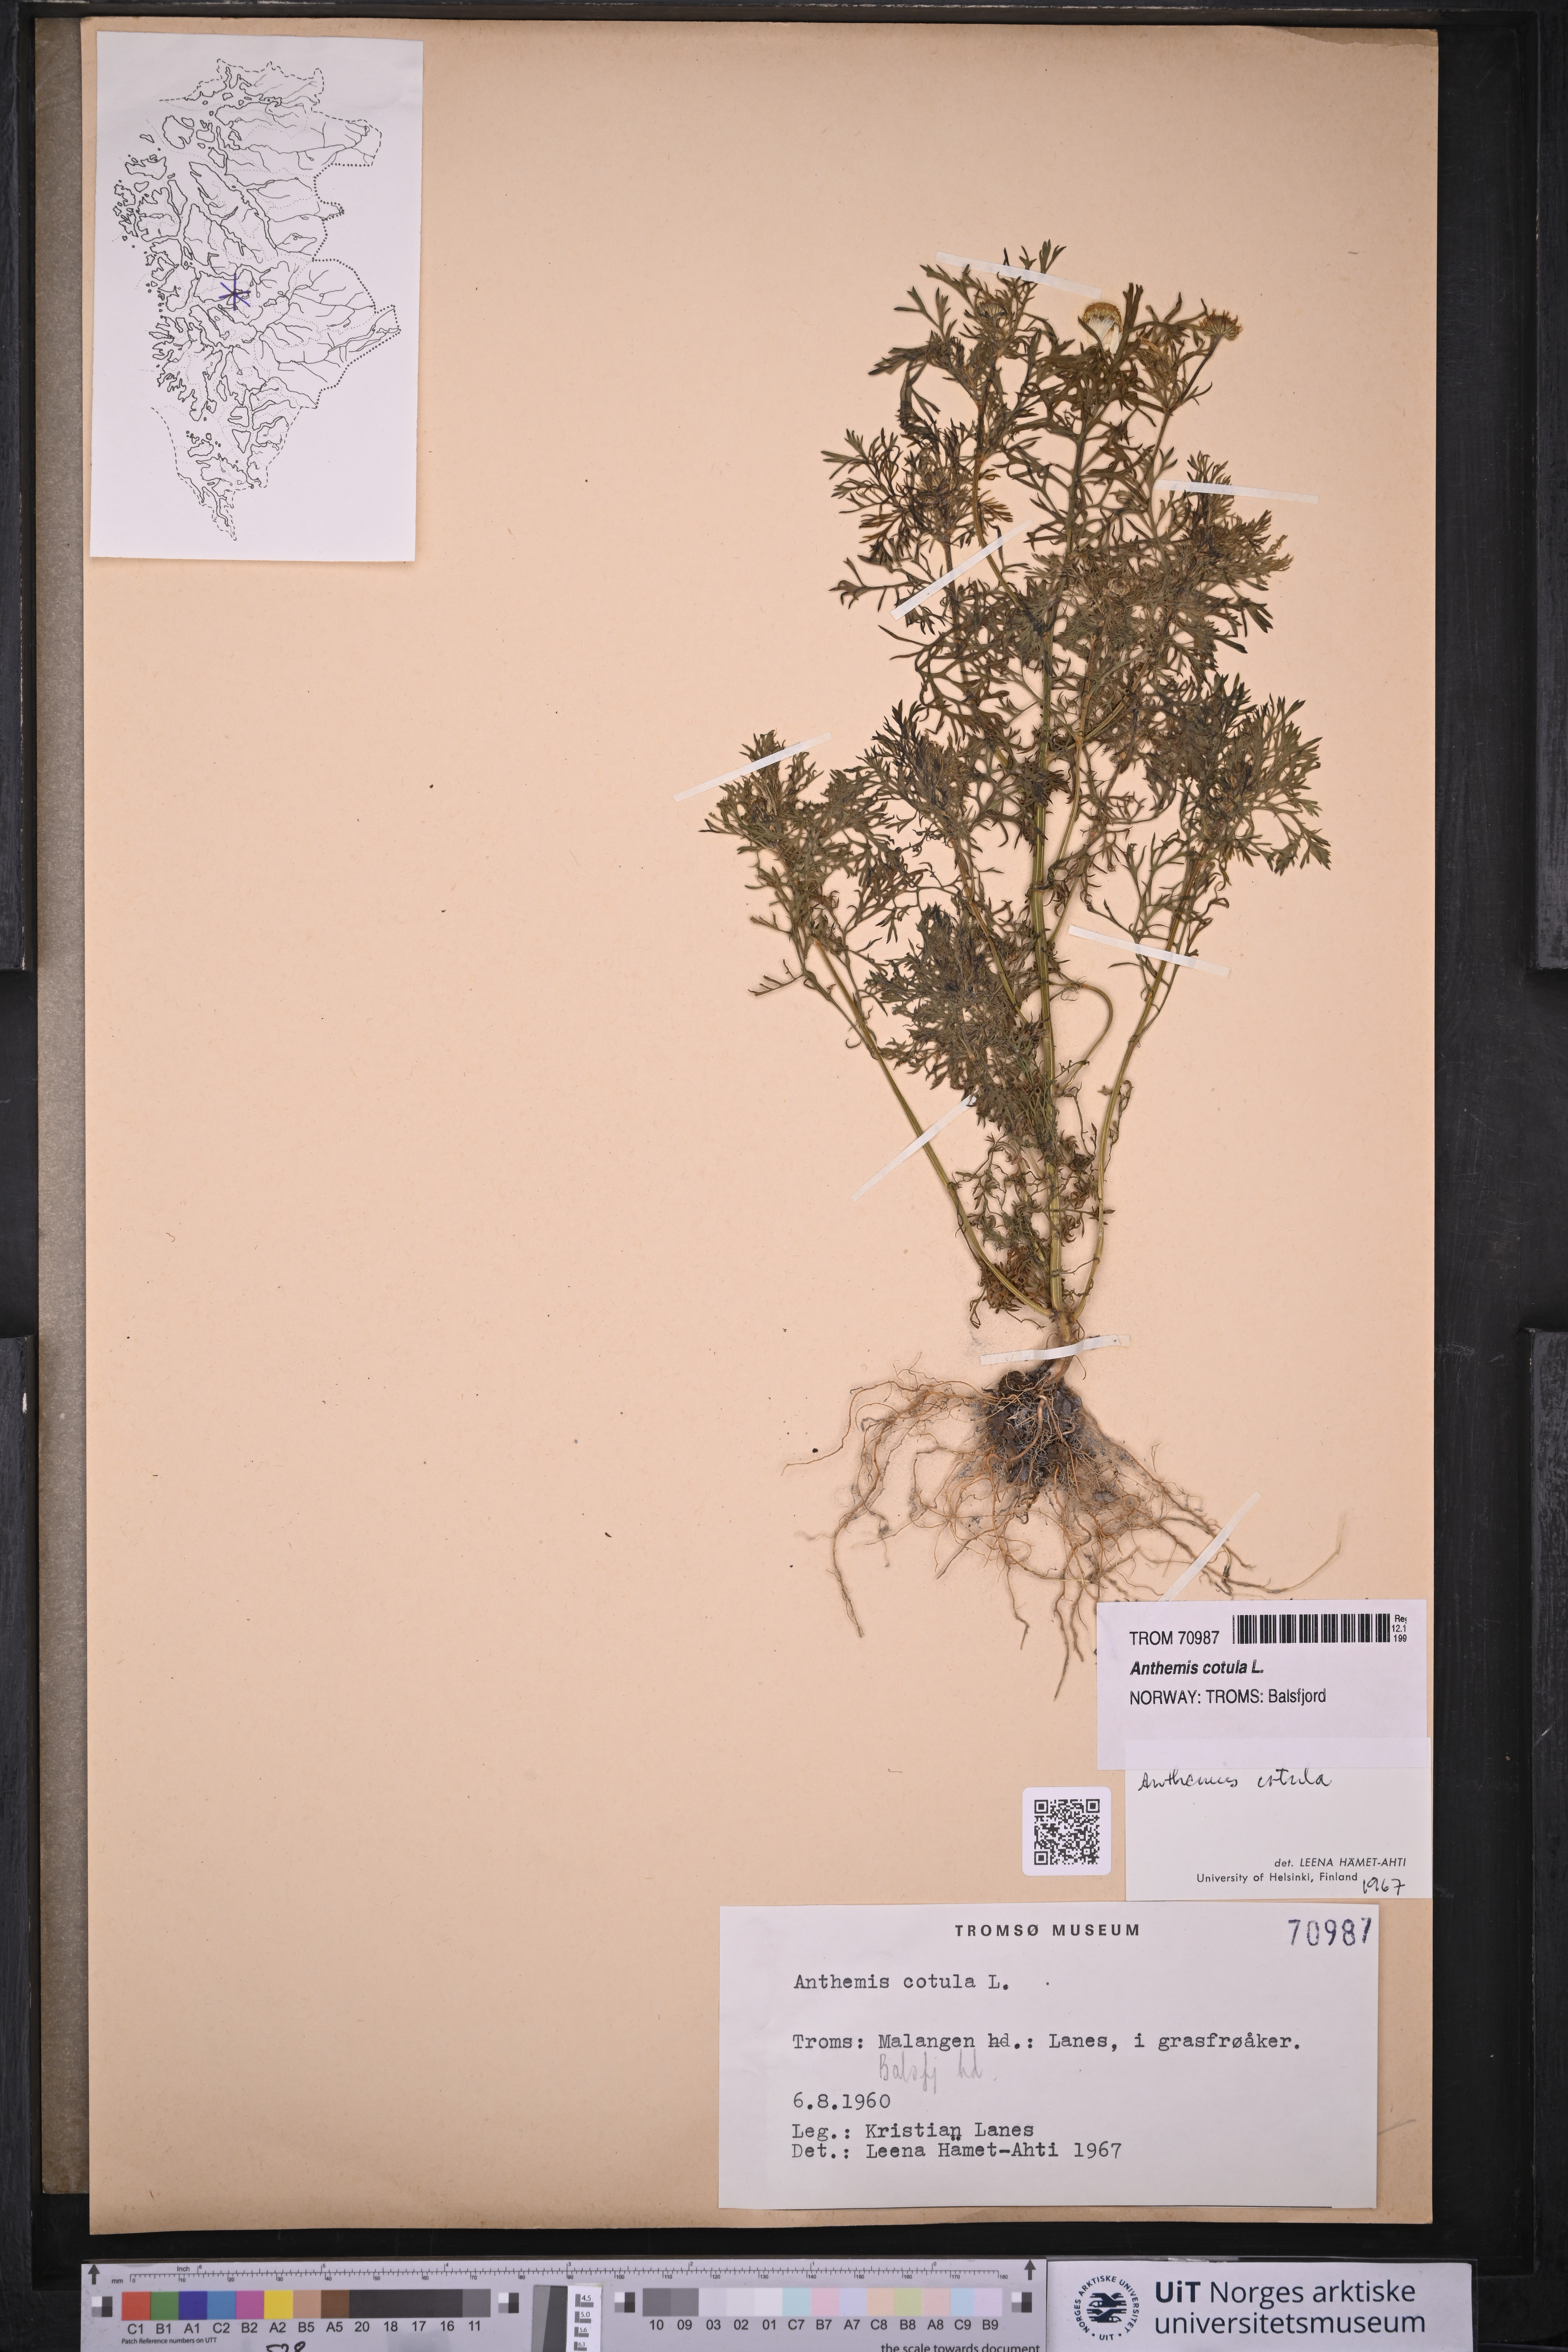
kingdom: Plantae
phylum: Tracheophyta
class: Magnoliopsida
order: Asterales
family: Asteraceae
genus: Anthemis
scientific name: Anthemis cotula
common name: Stinking chamomile
